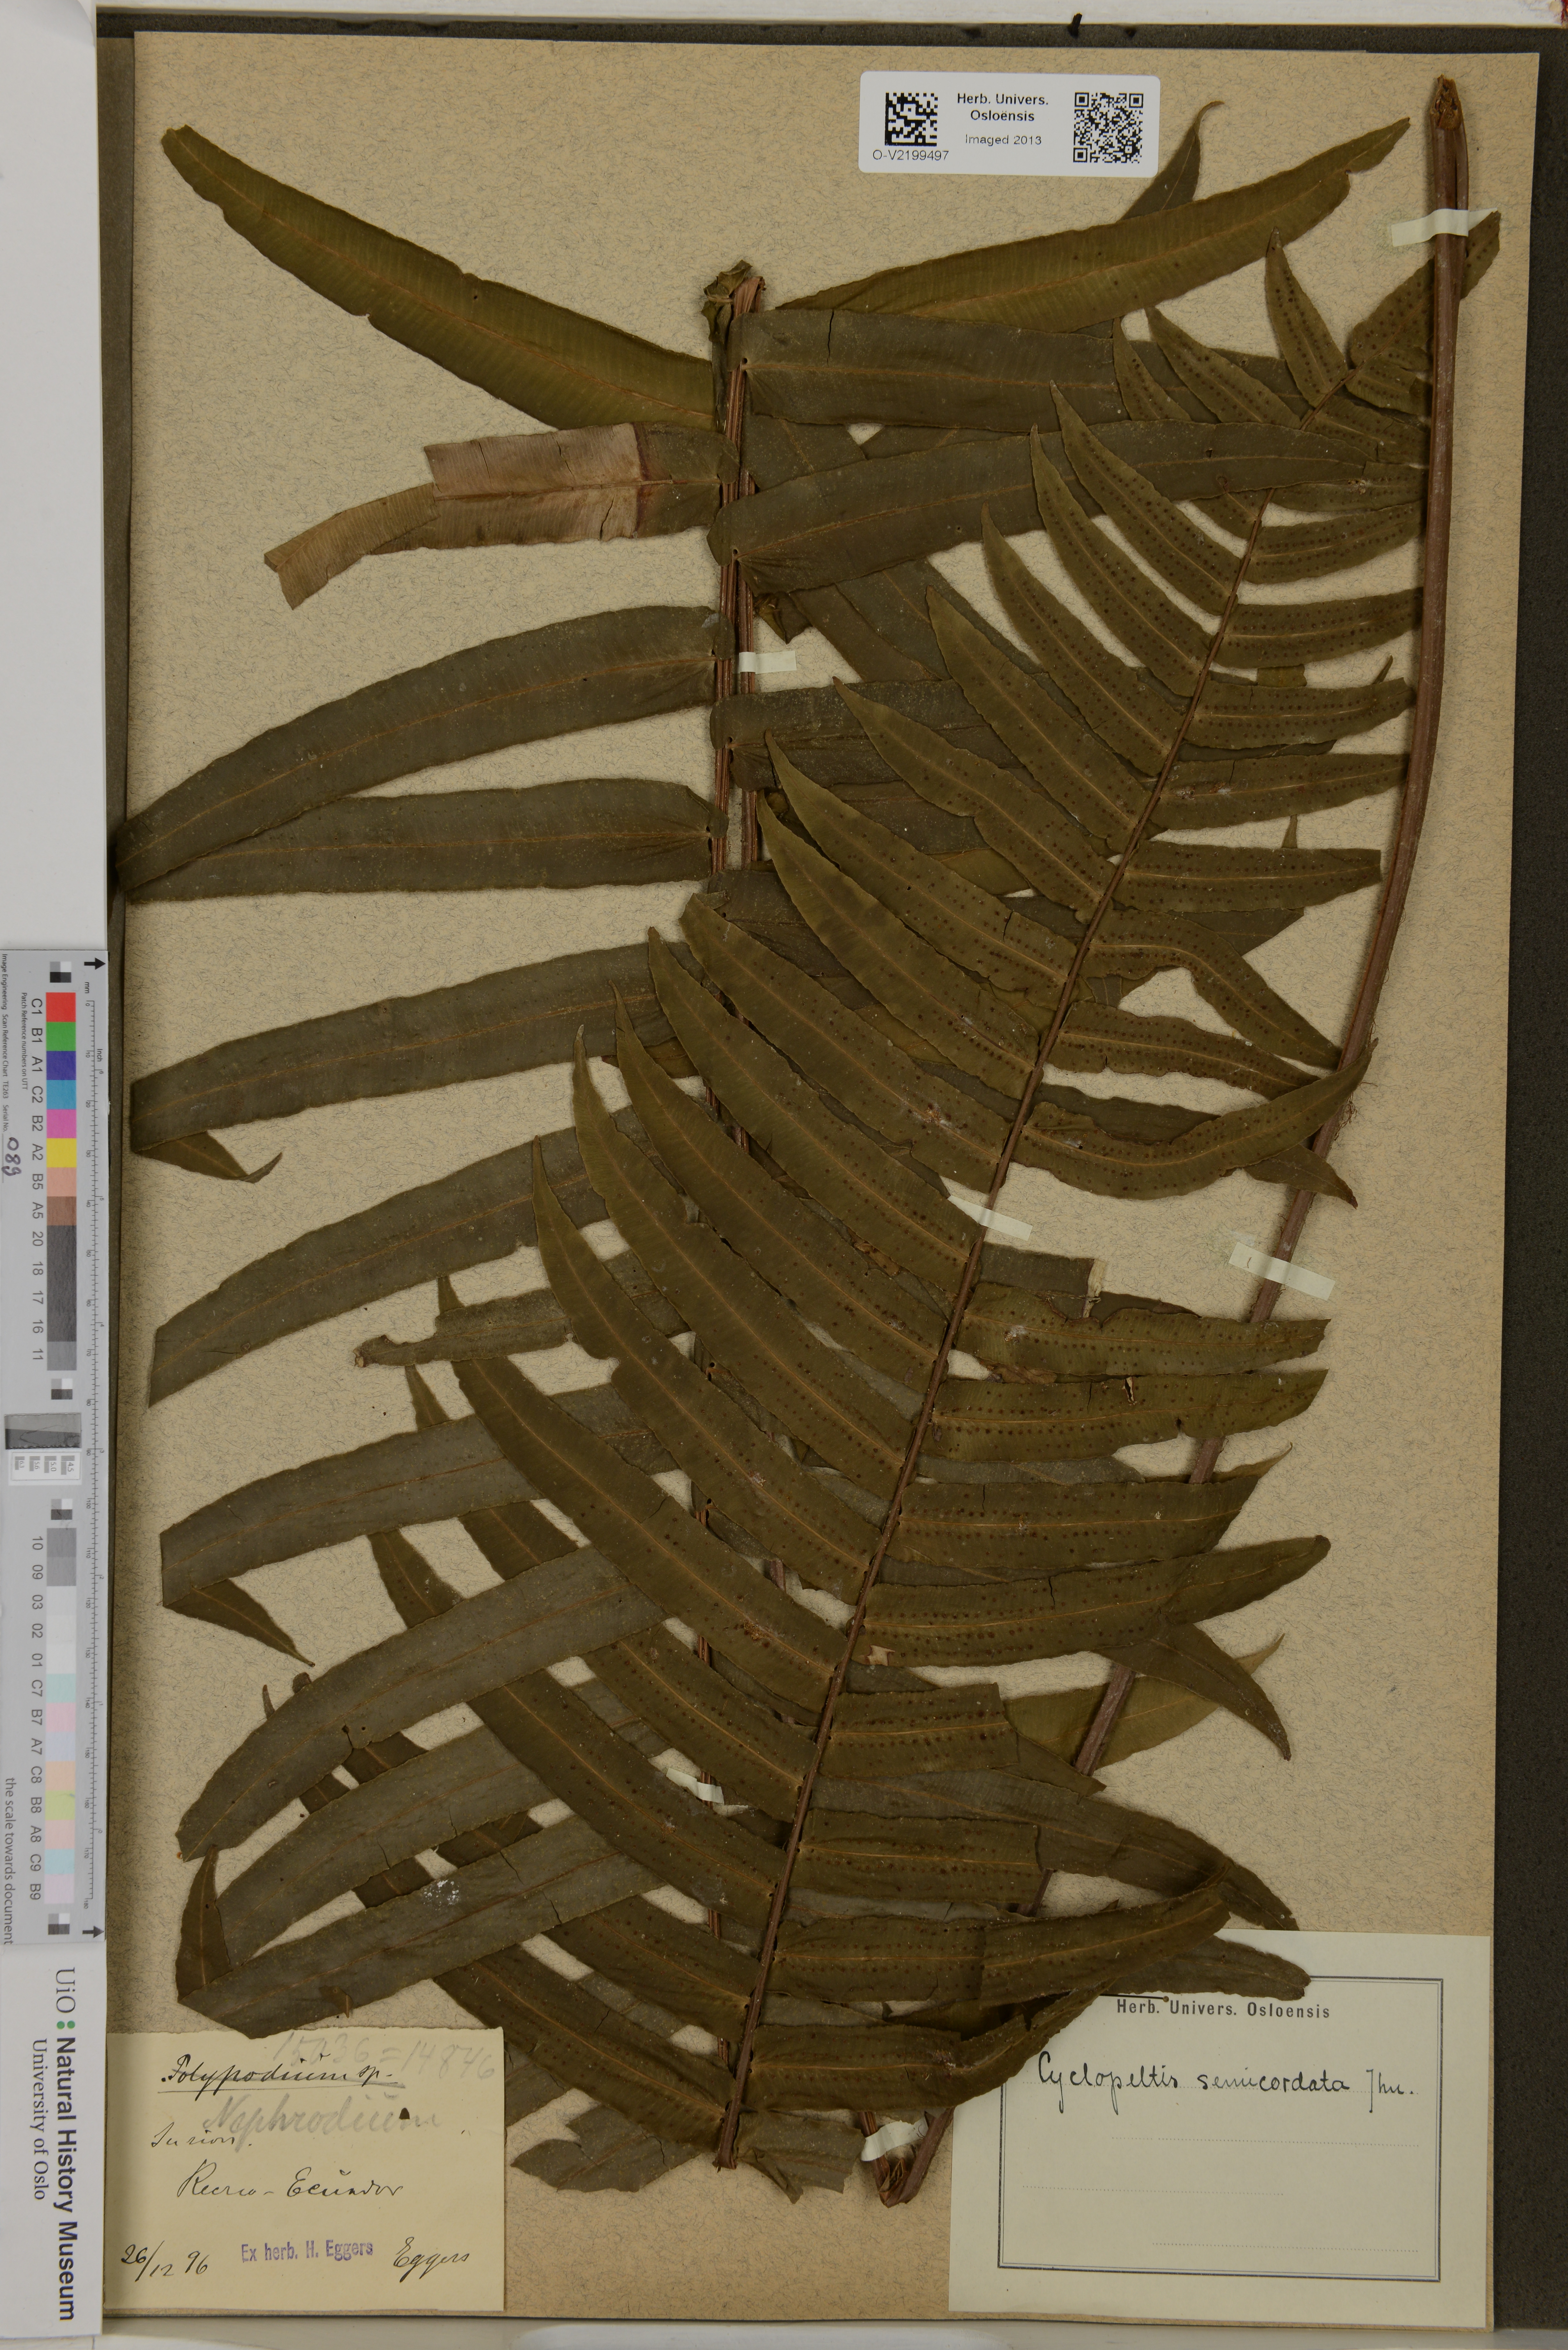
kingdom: Plantae
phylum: Tracheophyta
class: Polypodiopsida
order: Polypodiales
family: Lomariopsidaceae
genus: Cyclopeltis
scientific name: Cyclopeltis semicordata
